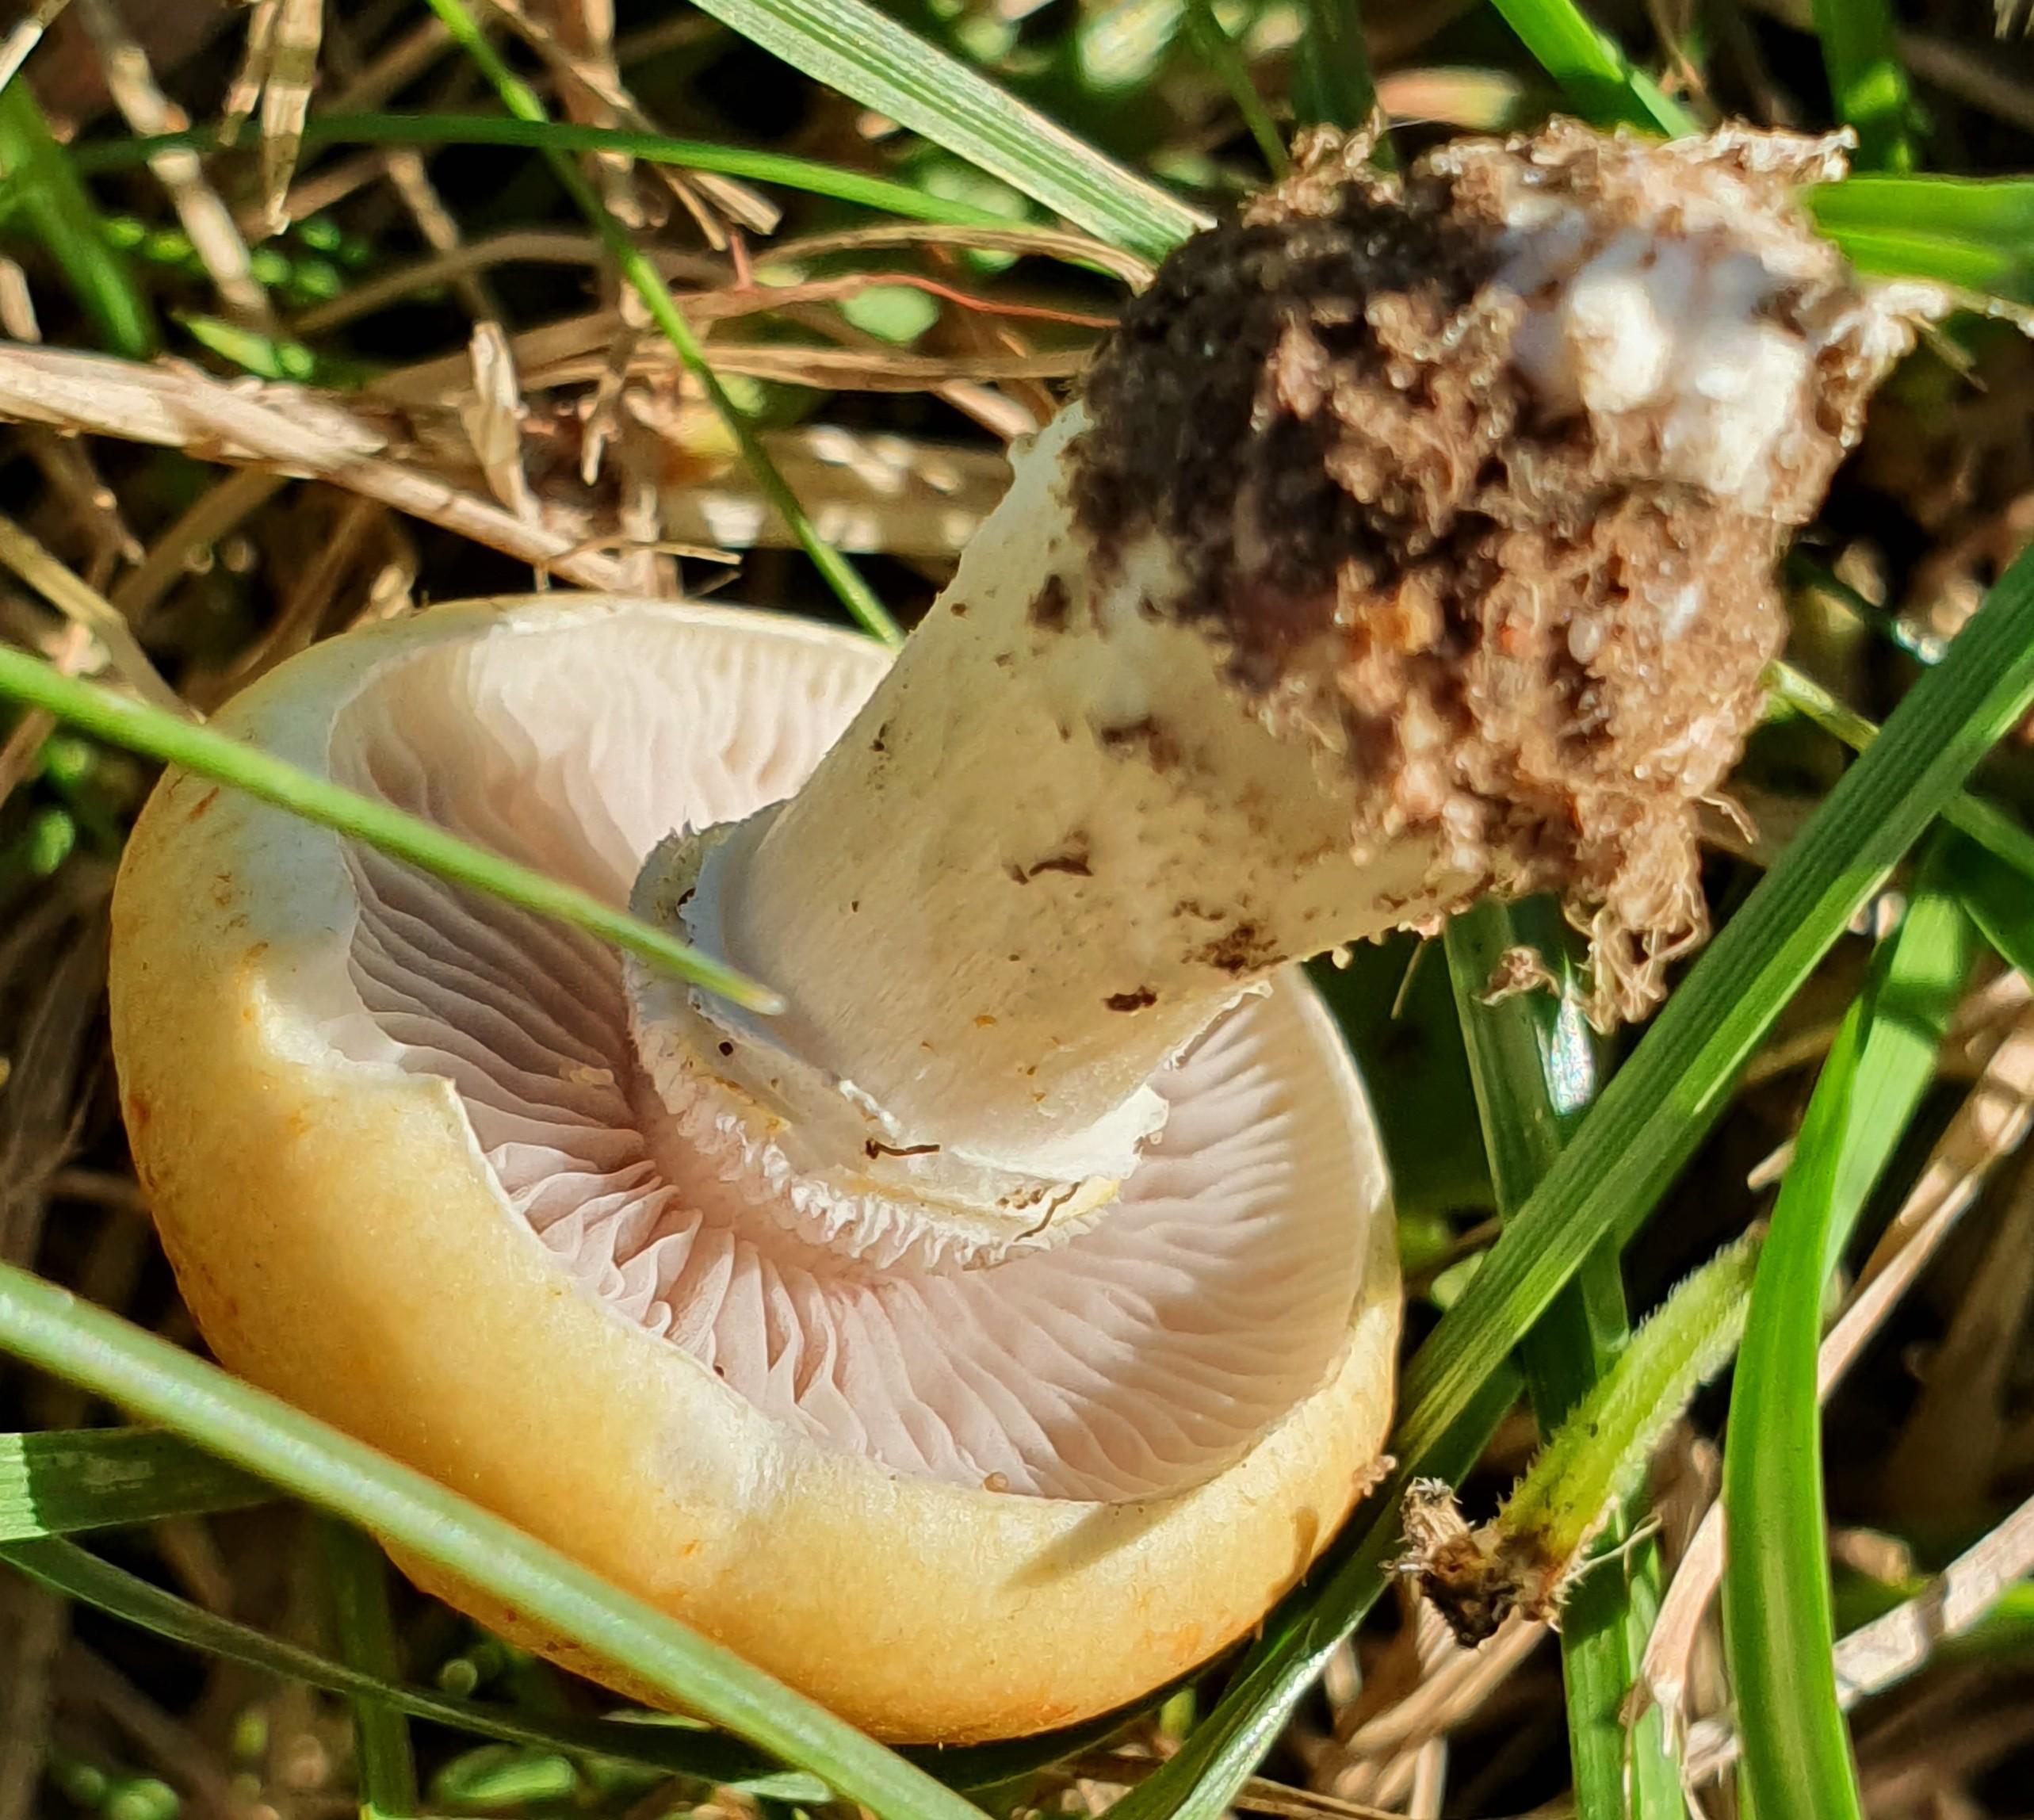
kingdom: Fungi
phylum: Basidiomycota
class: Agaricomycetes
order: Agaricales
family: Hymenogastraceae
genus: Psilocybe
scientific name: Psilocybe coronilla
